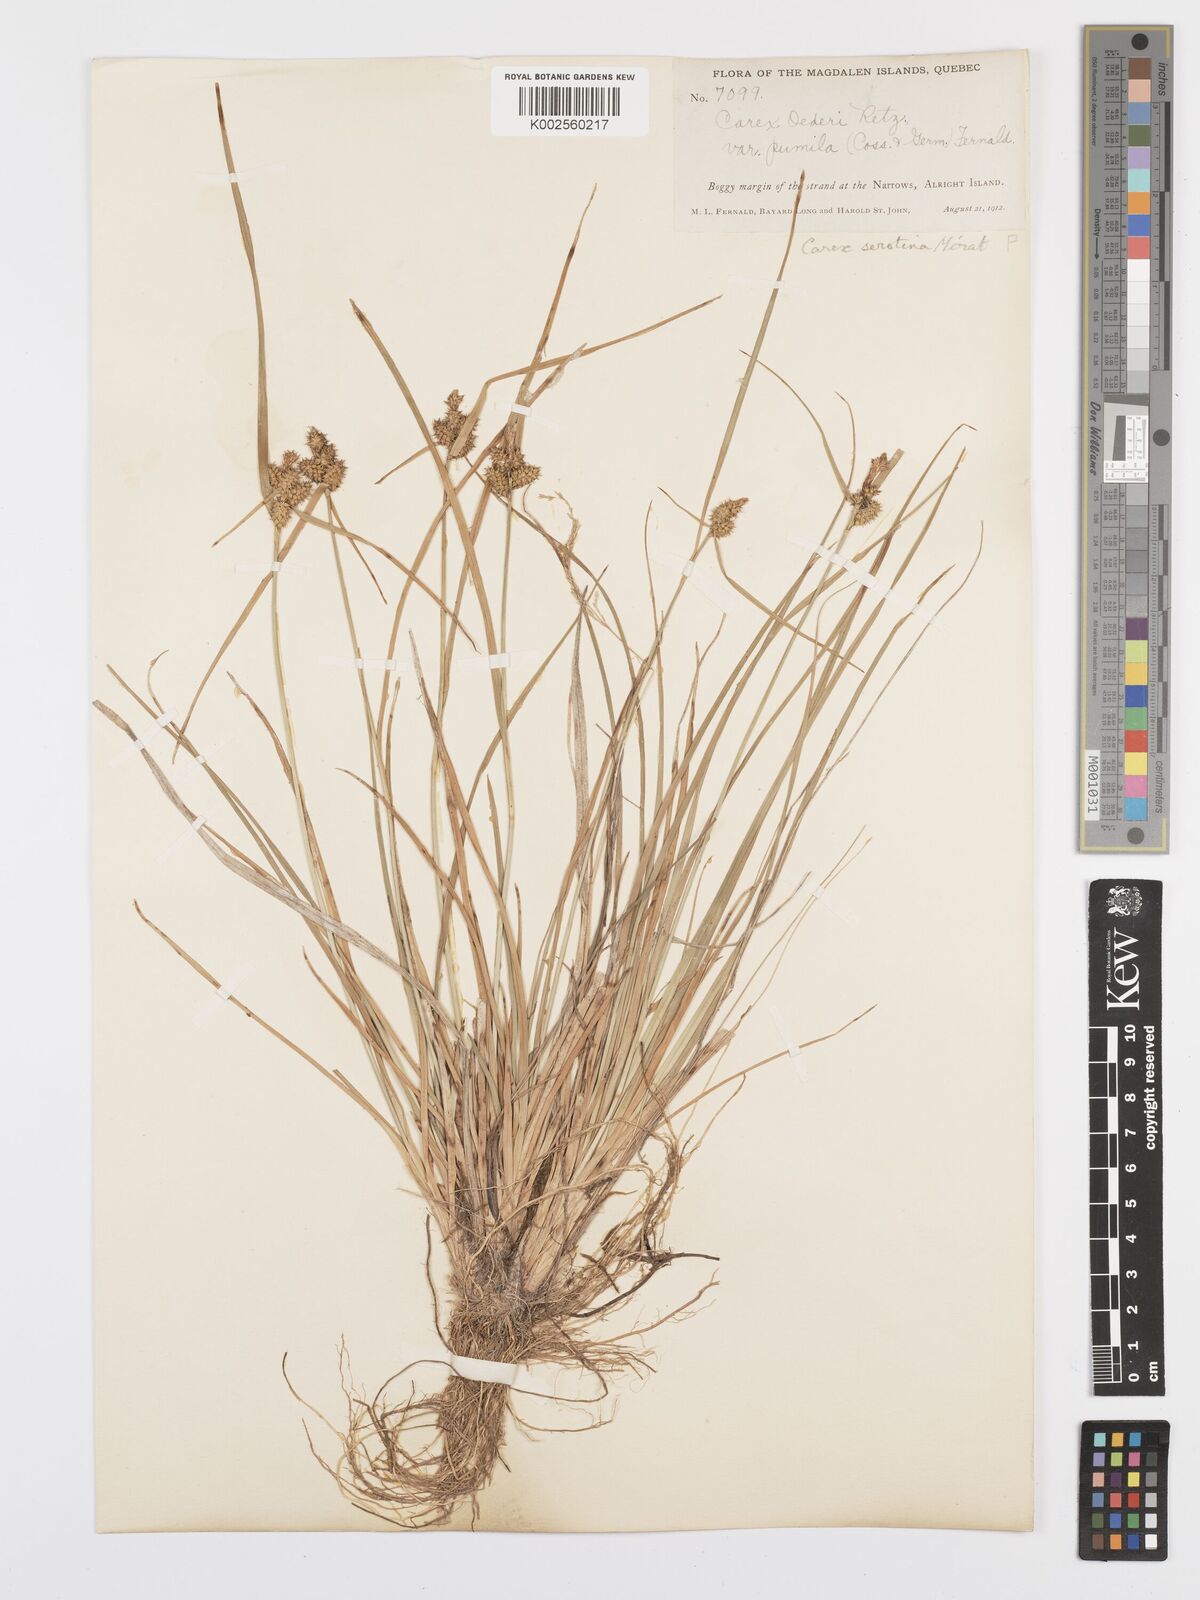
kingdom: Plantae
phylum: Tracheophyta
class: Liliopsida
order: Poales
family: Cyperaceae
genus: Carex
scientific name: Carex oederi
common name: Common & small-fruited yellow-sedge
